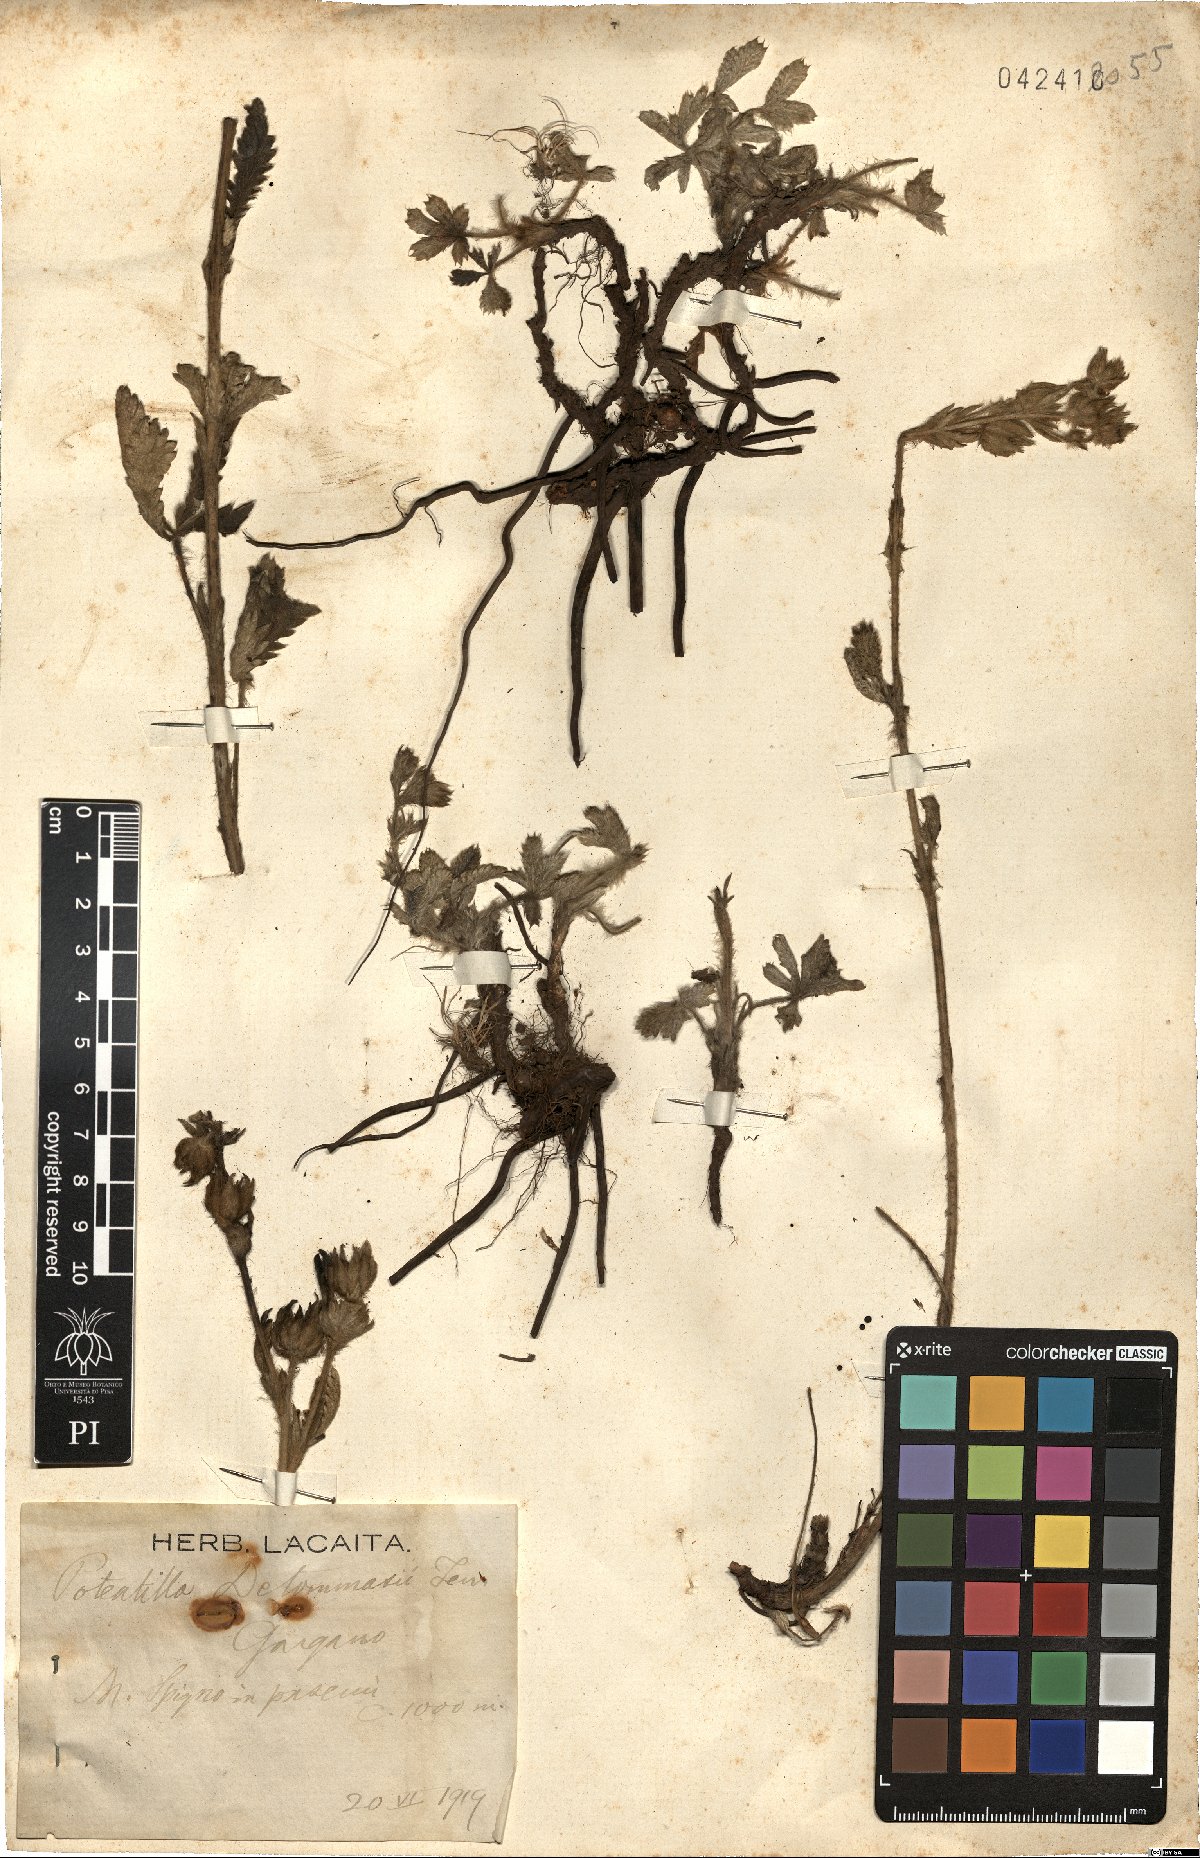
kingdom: Plantae
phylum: Tracheophyta
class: Magnoliopsida
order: Rosales
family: Rosaceae
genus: Potentilla
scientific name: Potentilla detommasii
